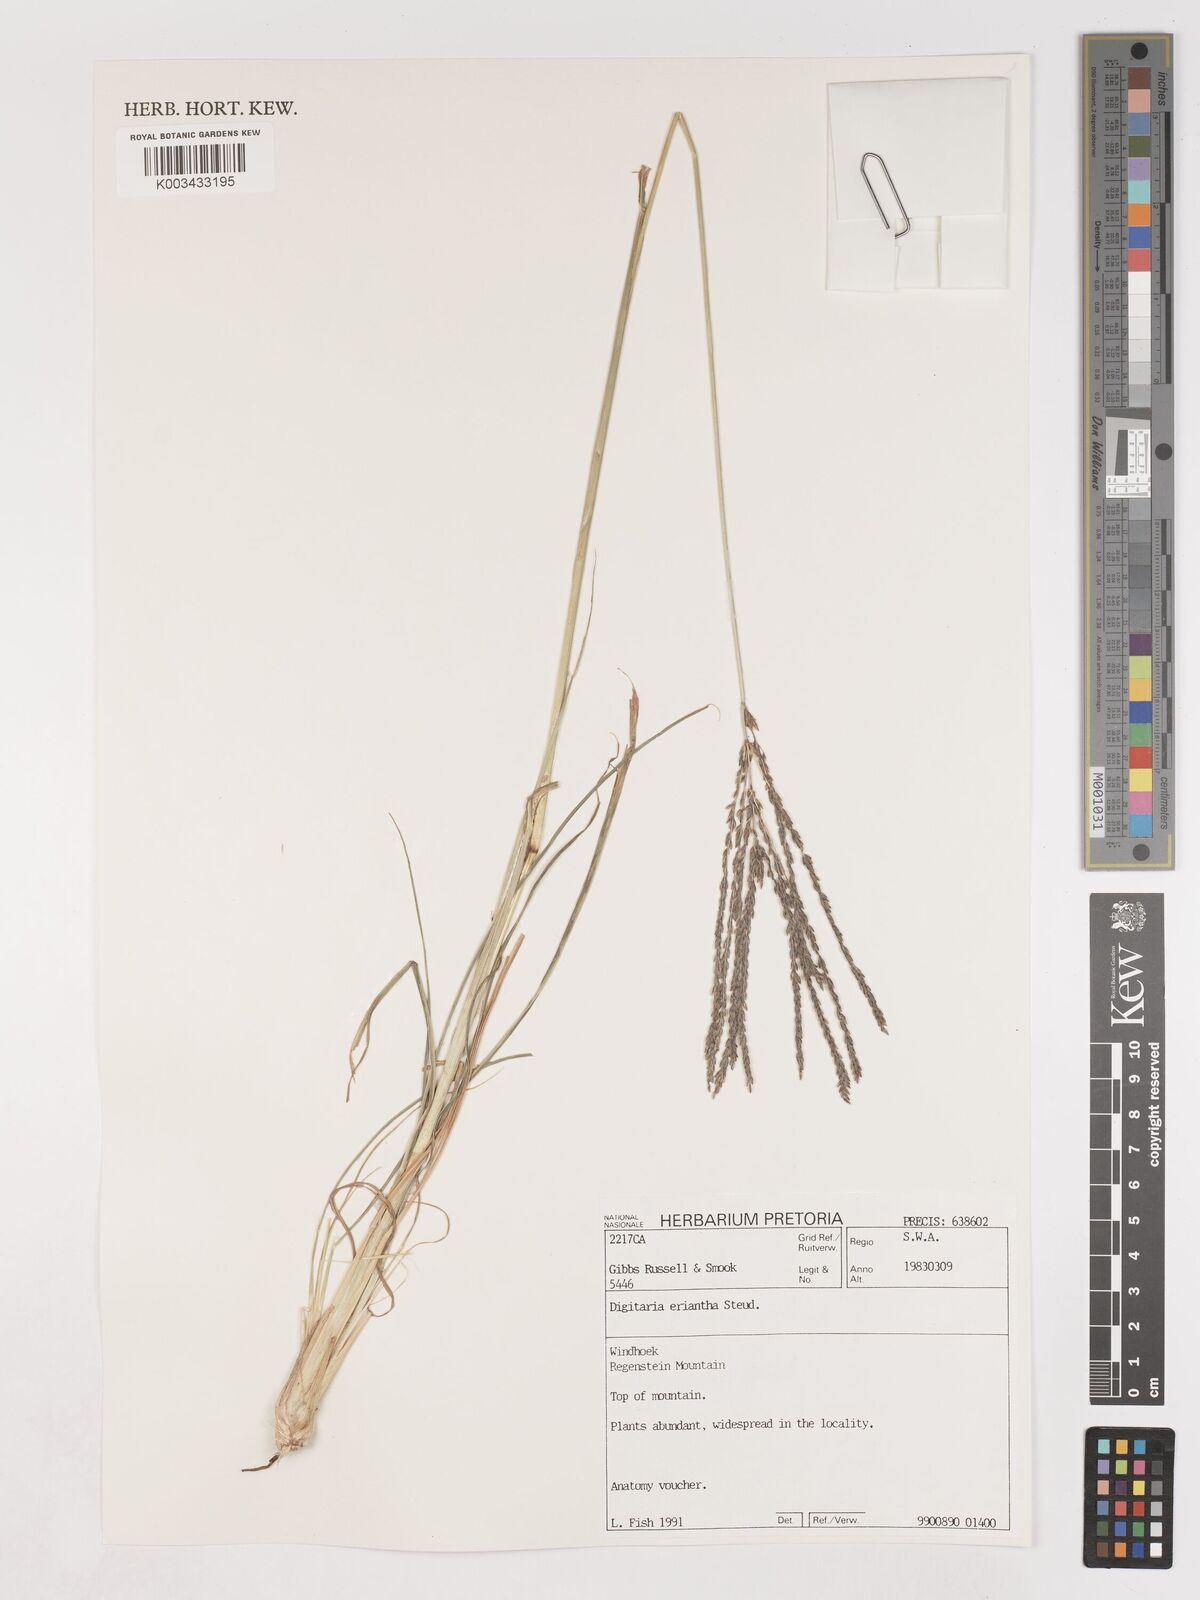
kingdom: Plantae
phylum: Tracheophyta
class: Liliopsida
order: Poales
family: Poaceae
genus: Digitaria
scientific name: Digitaria eriantha
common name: Digitgrass
